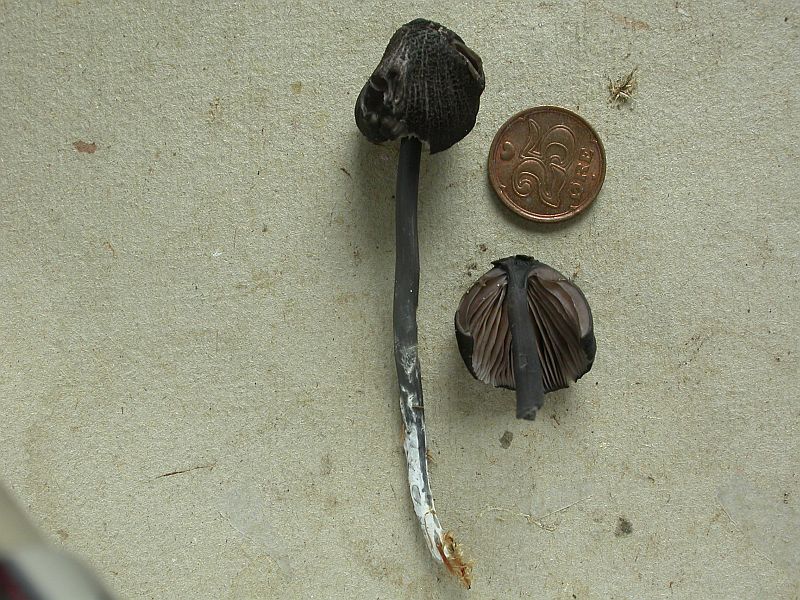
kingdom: Fungi
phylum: Basidiomycota
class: Agaricomycetes
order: Agaricales
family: Entolomataceae
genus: Entoloma
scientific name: Entoloma chalybeum
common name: blåbladet rødblad
